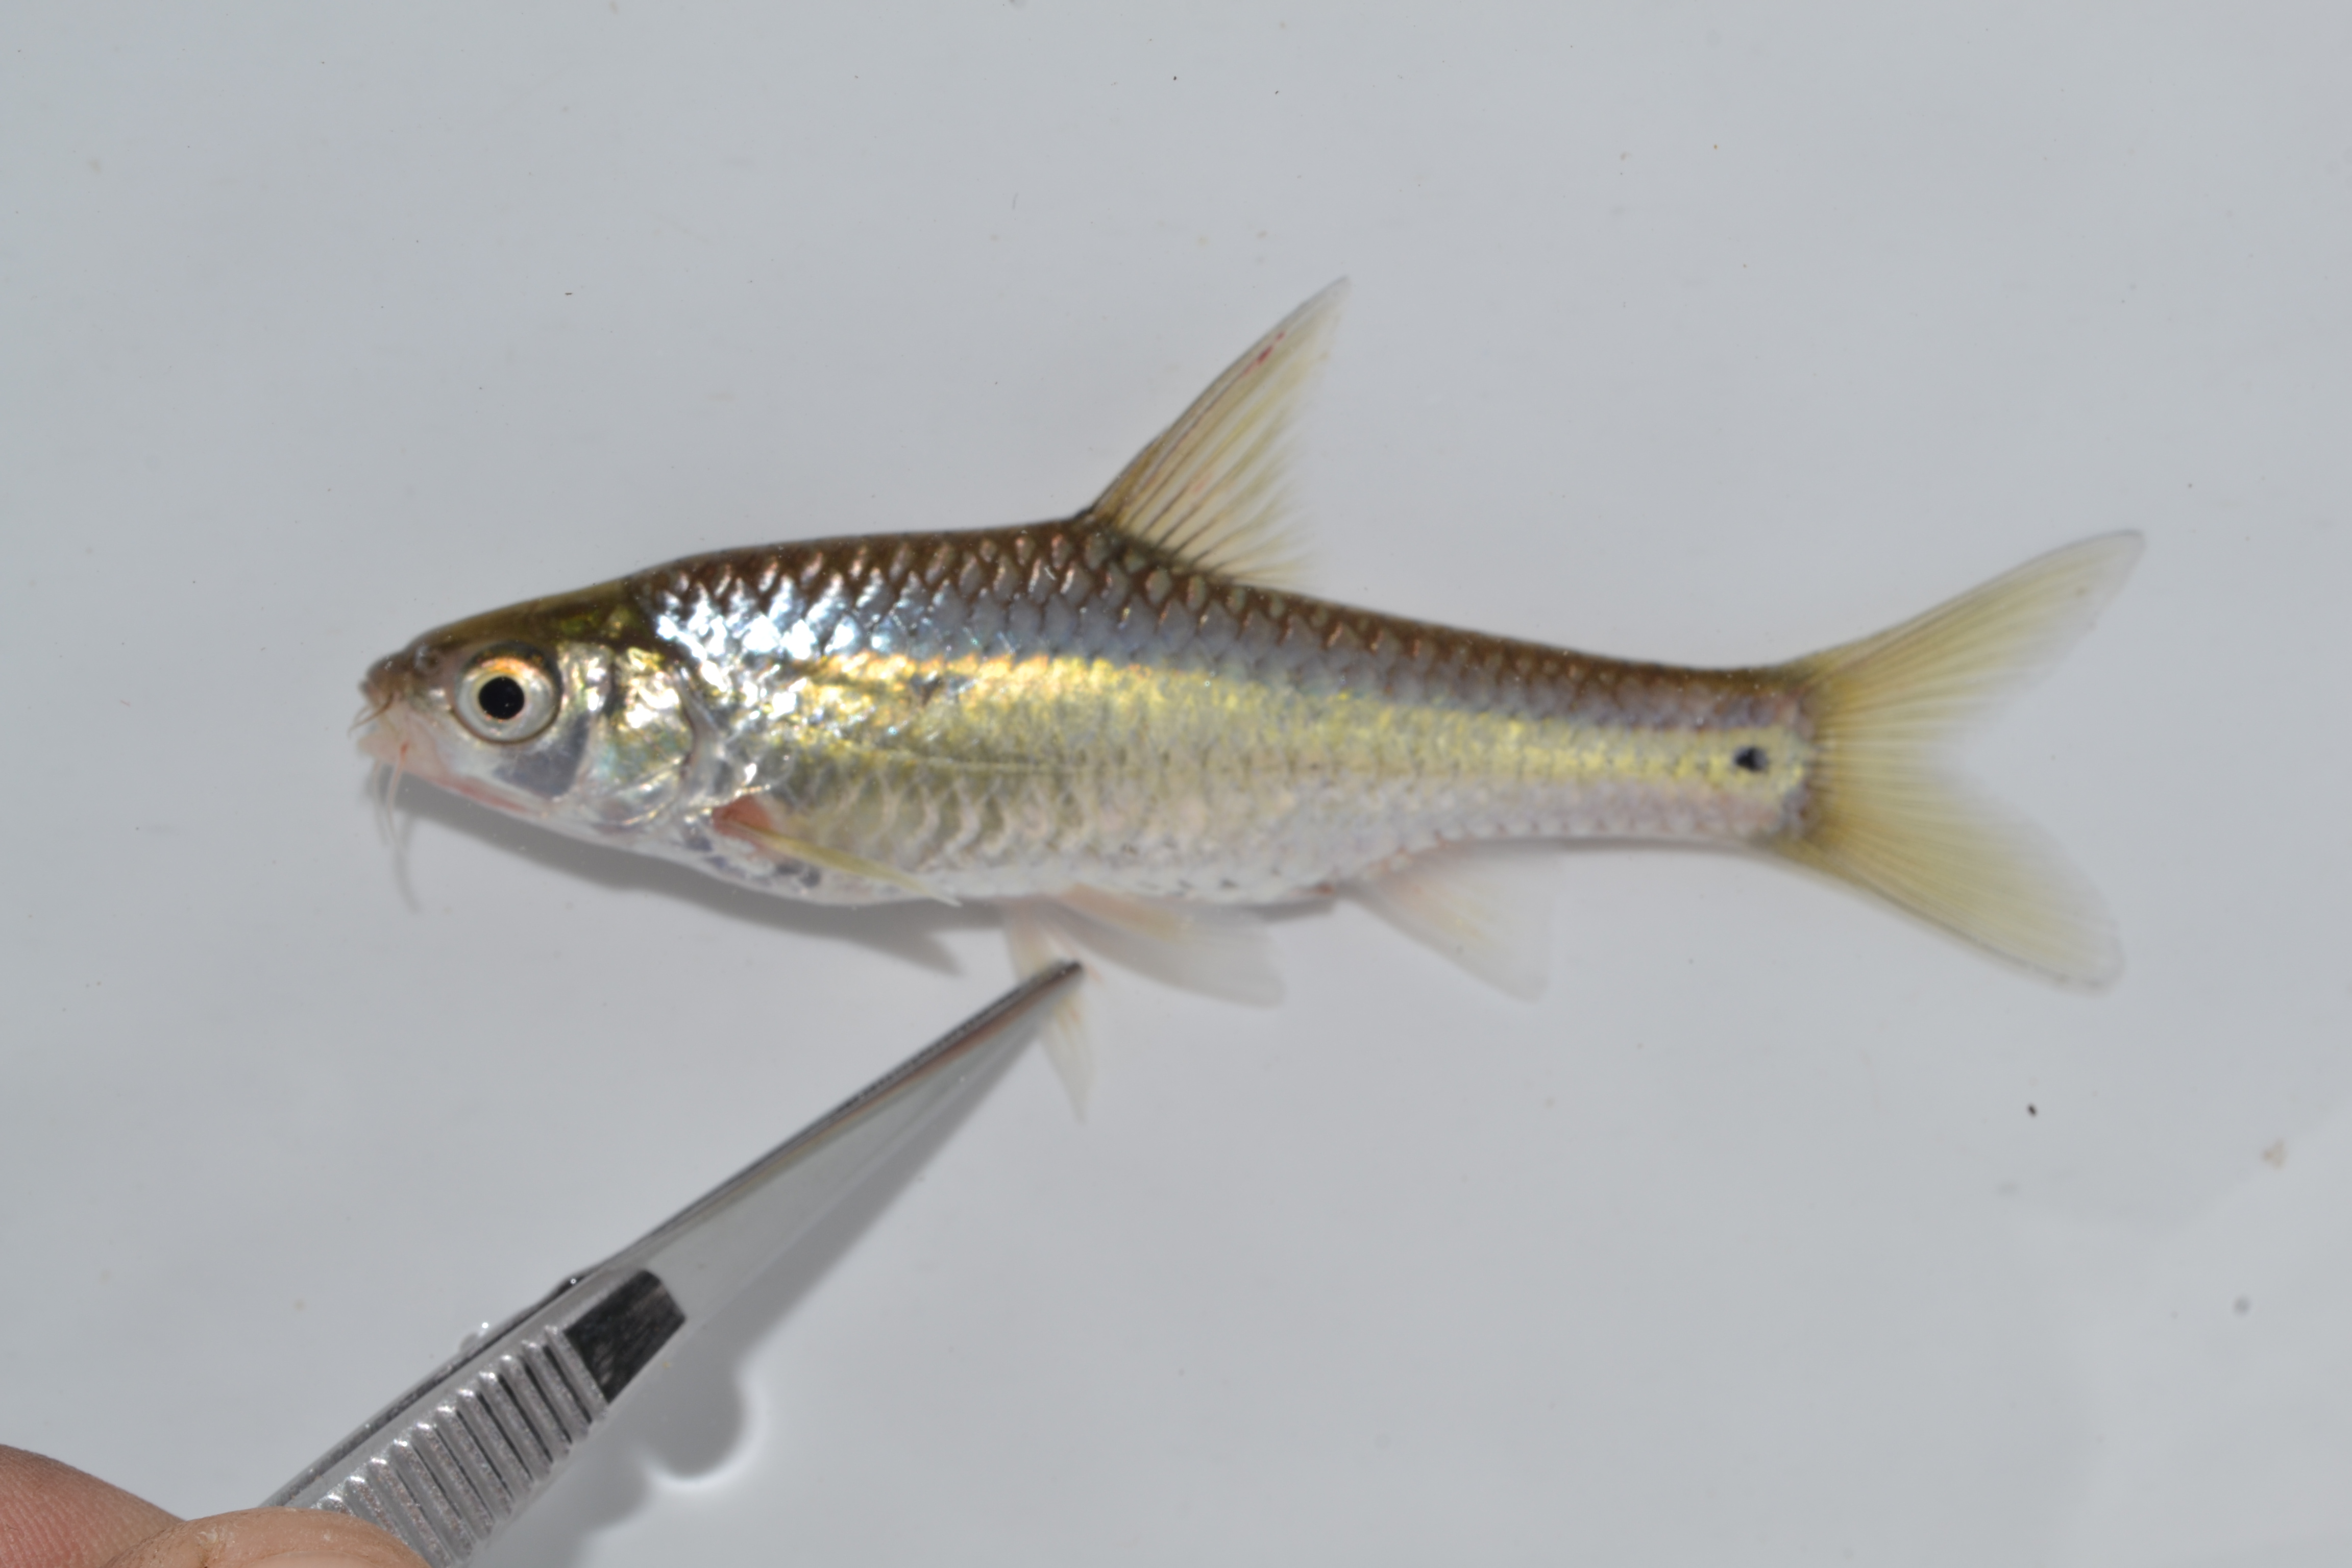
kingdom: Animalia
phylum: Chordata
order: Cypriniformes
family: Cyprinidae
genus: Enteromius
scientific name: Enteromius trimaculatus
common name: Threespot barb
